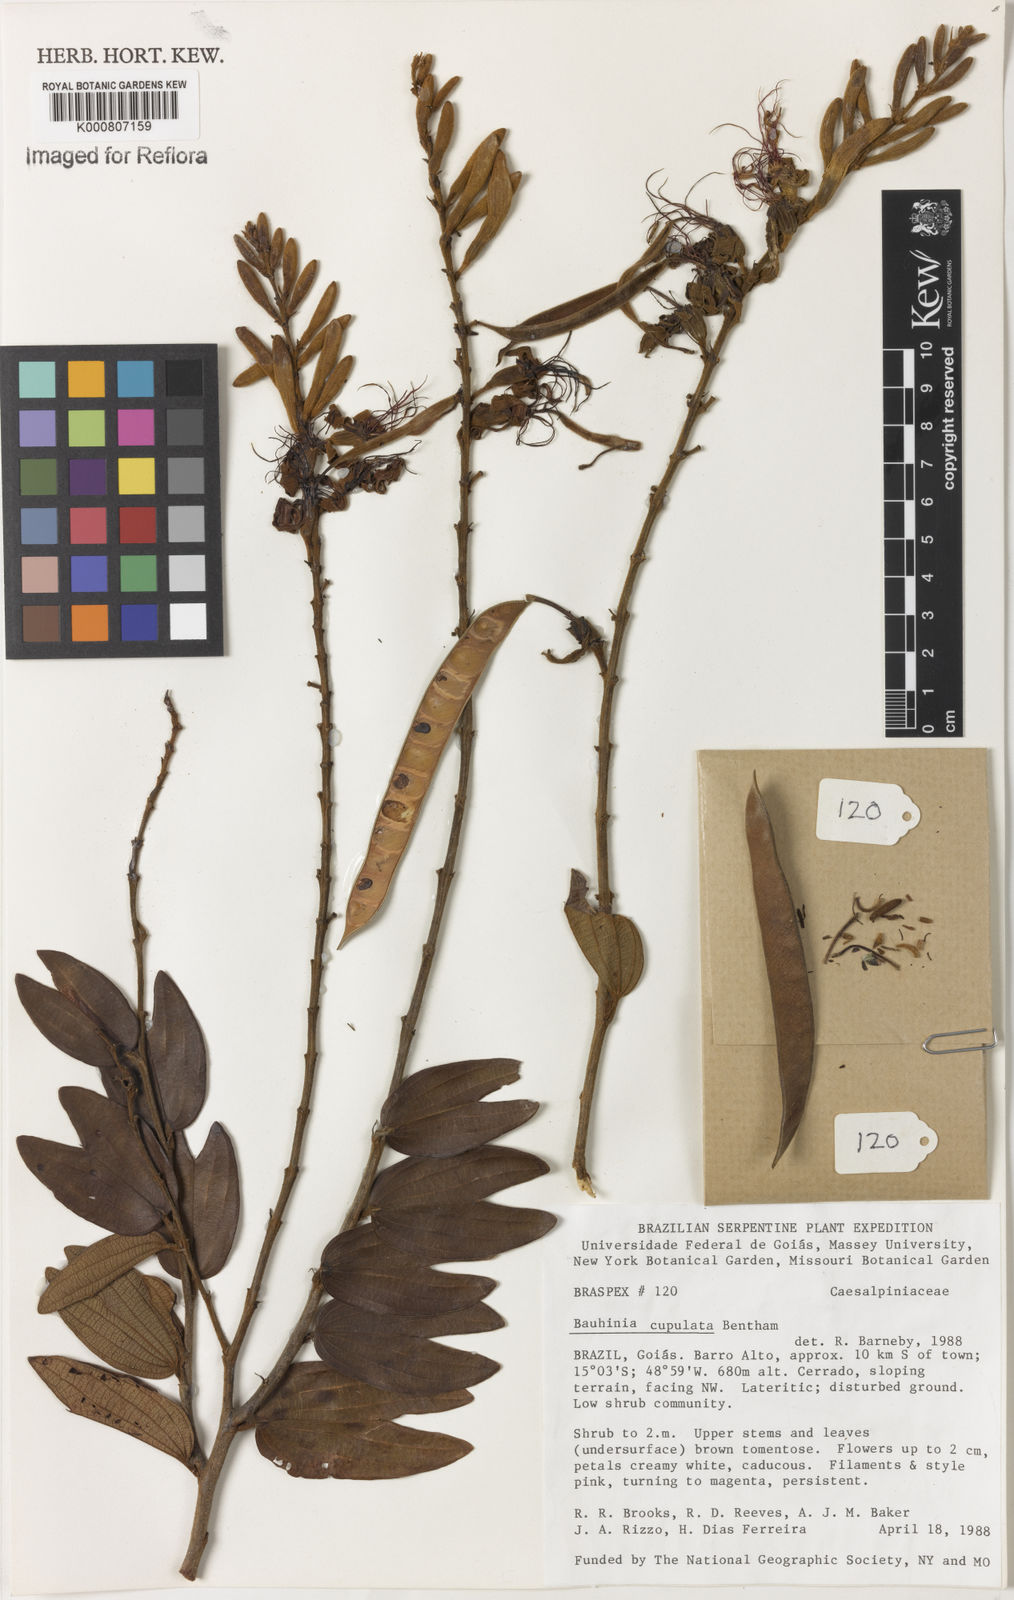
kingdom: Plantae
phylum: Tracheophyta
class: Magnoliopsida
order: Fabales
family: Fabaceae
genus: Bauhinia
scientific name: Bauhinia cupulata
